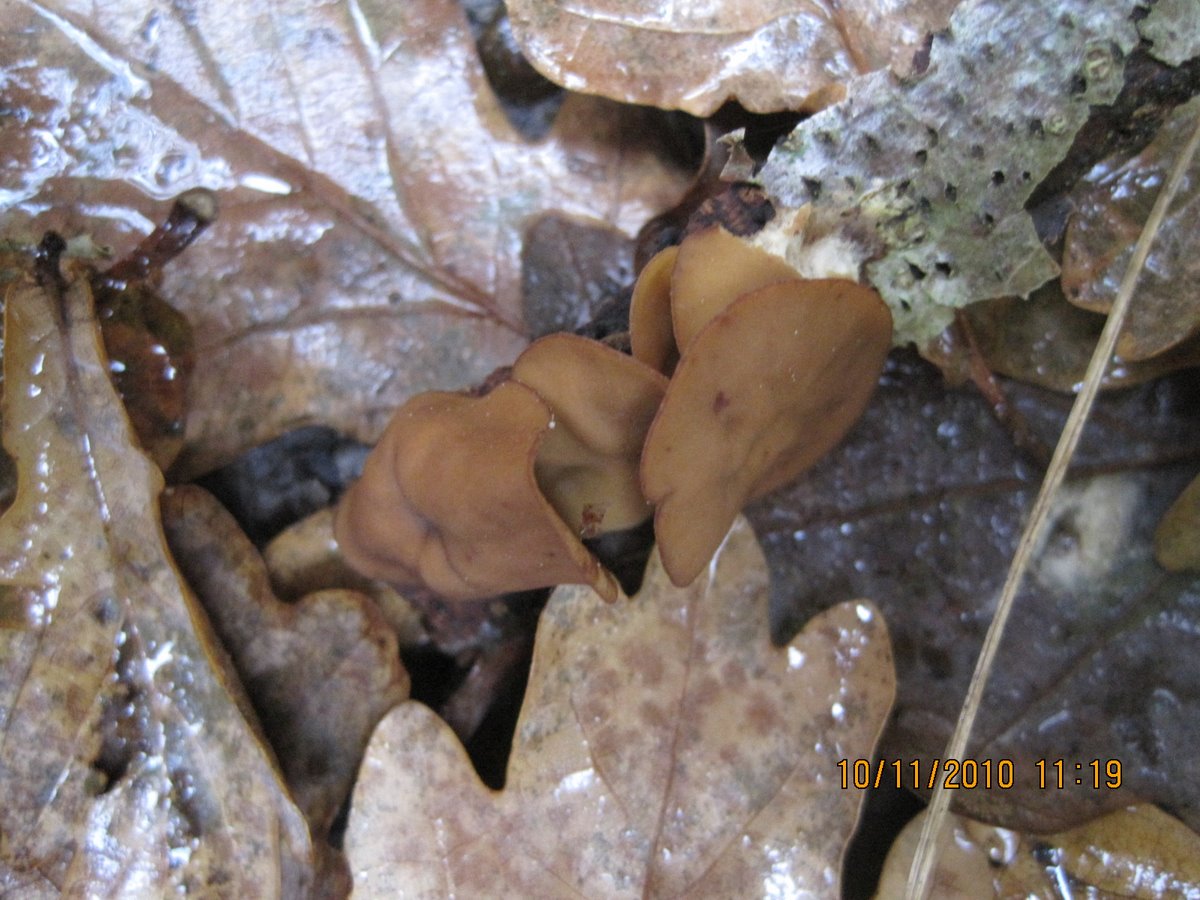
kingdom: Fungi
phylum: Ascomycota
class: Leotiomycetes
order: Helotiales
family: Rutstroemiaceae
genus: Rutstroemia
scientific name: Rutstroemia firma
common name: gren-brunskive
